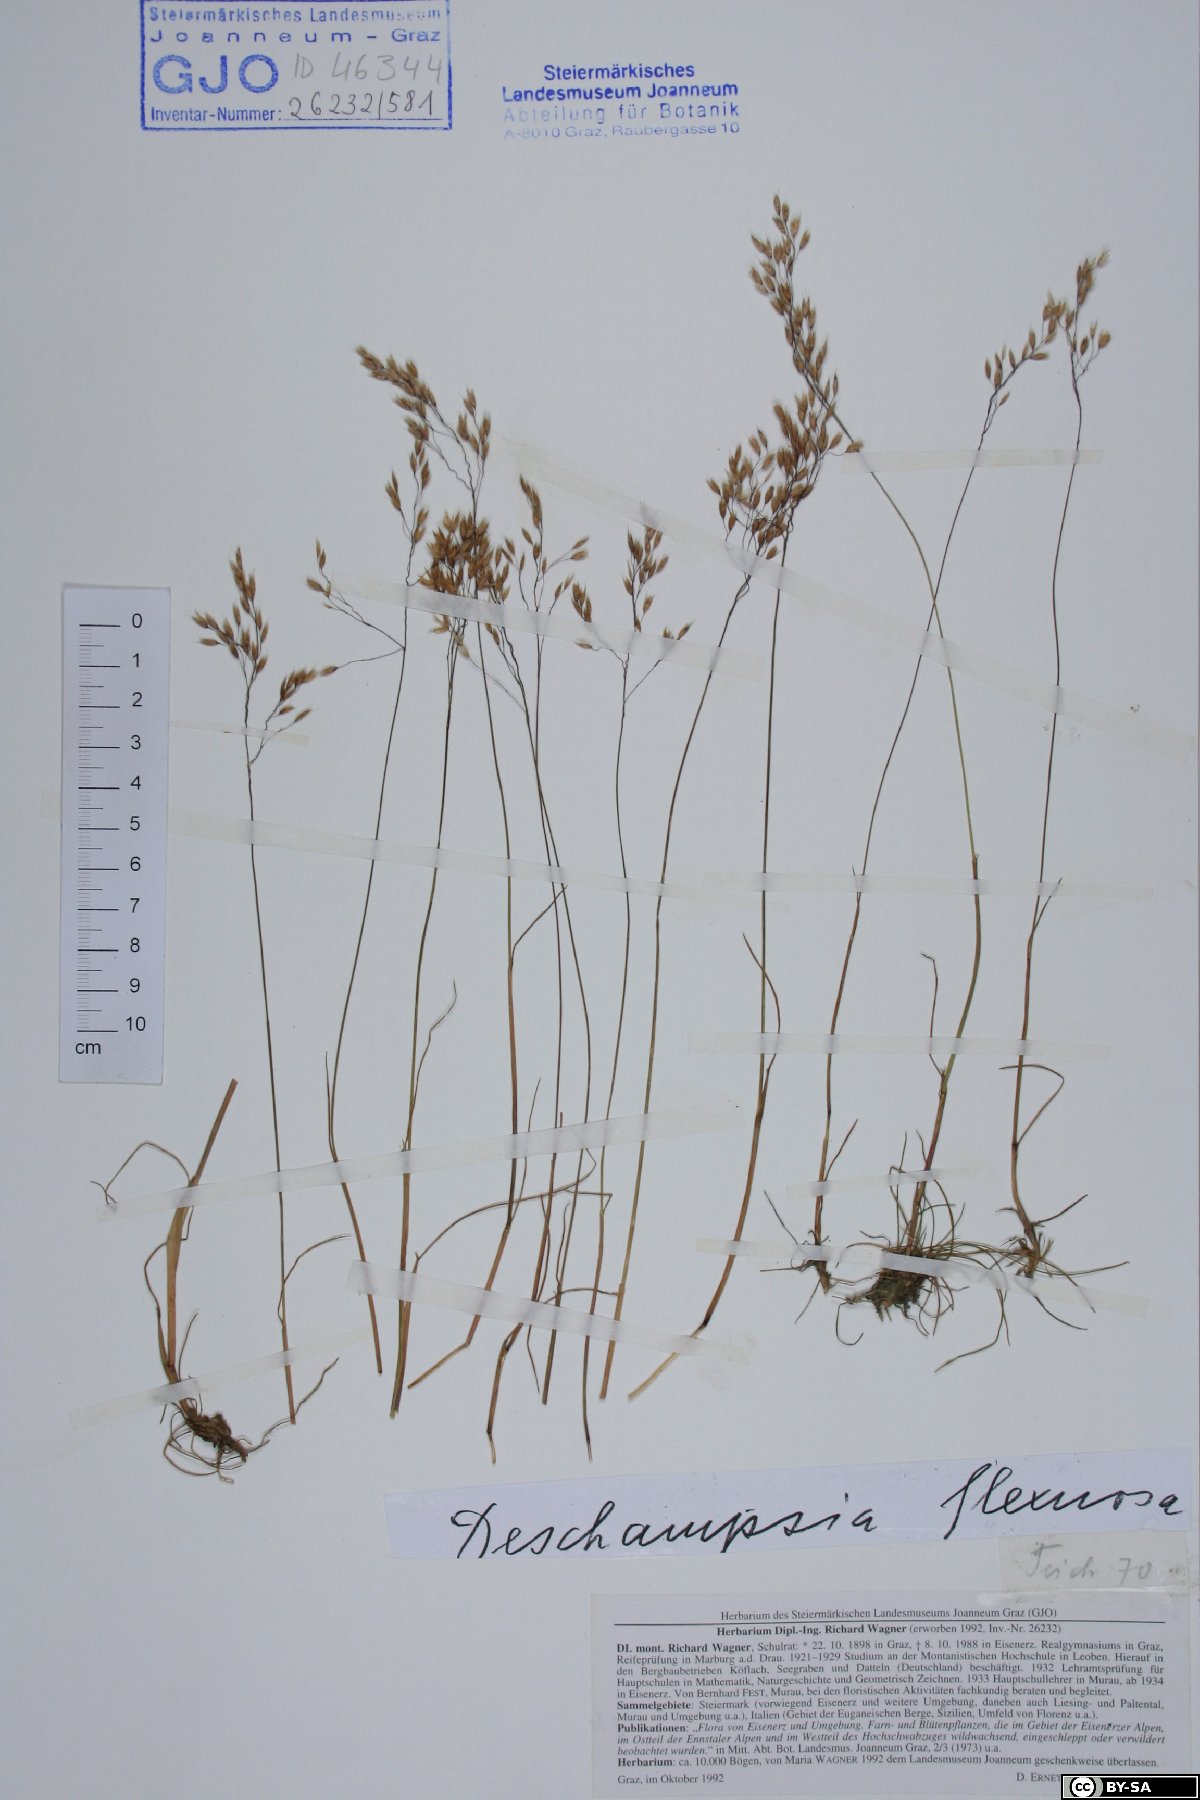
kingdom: Plantae
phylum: Tracheophyta
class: Liliopsida
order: Poales
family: Poaceae
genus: Avenella
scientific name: Avenella flexuosa
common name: Wavy hairgrass
